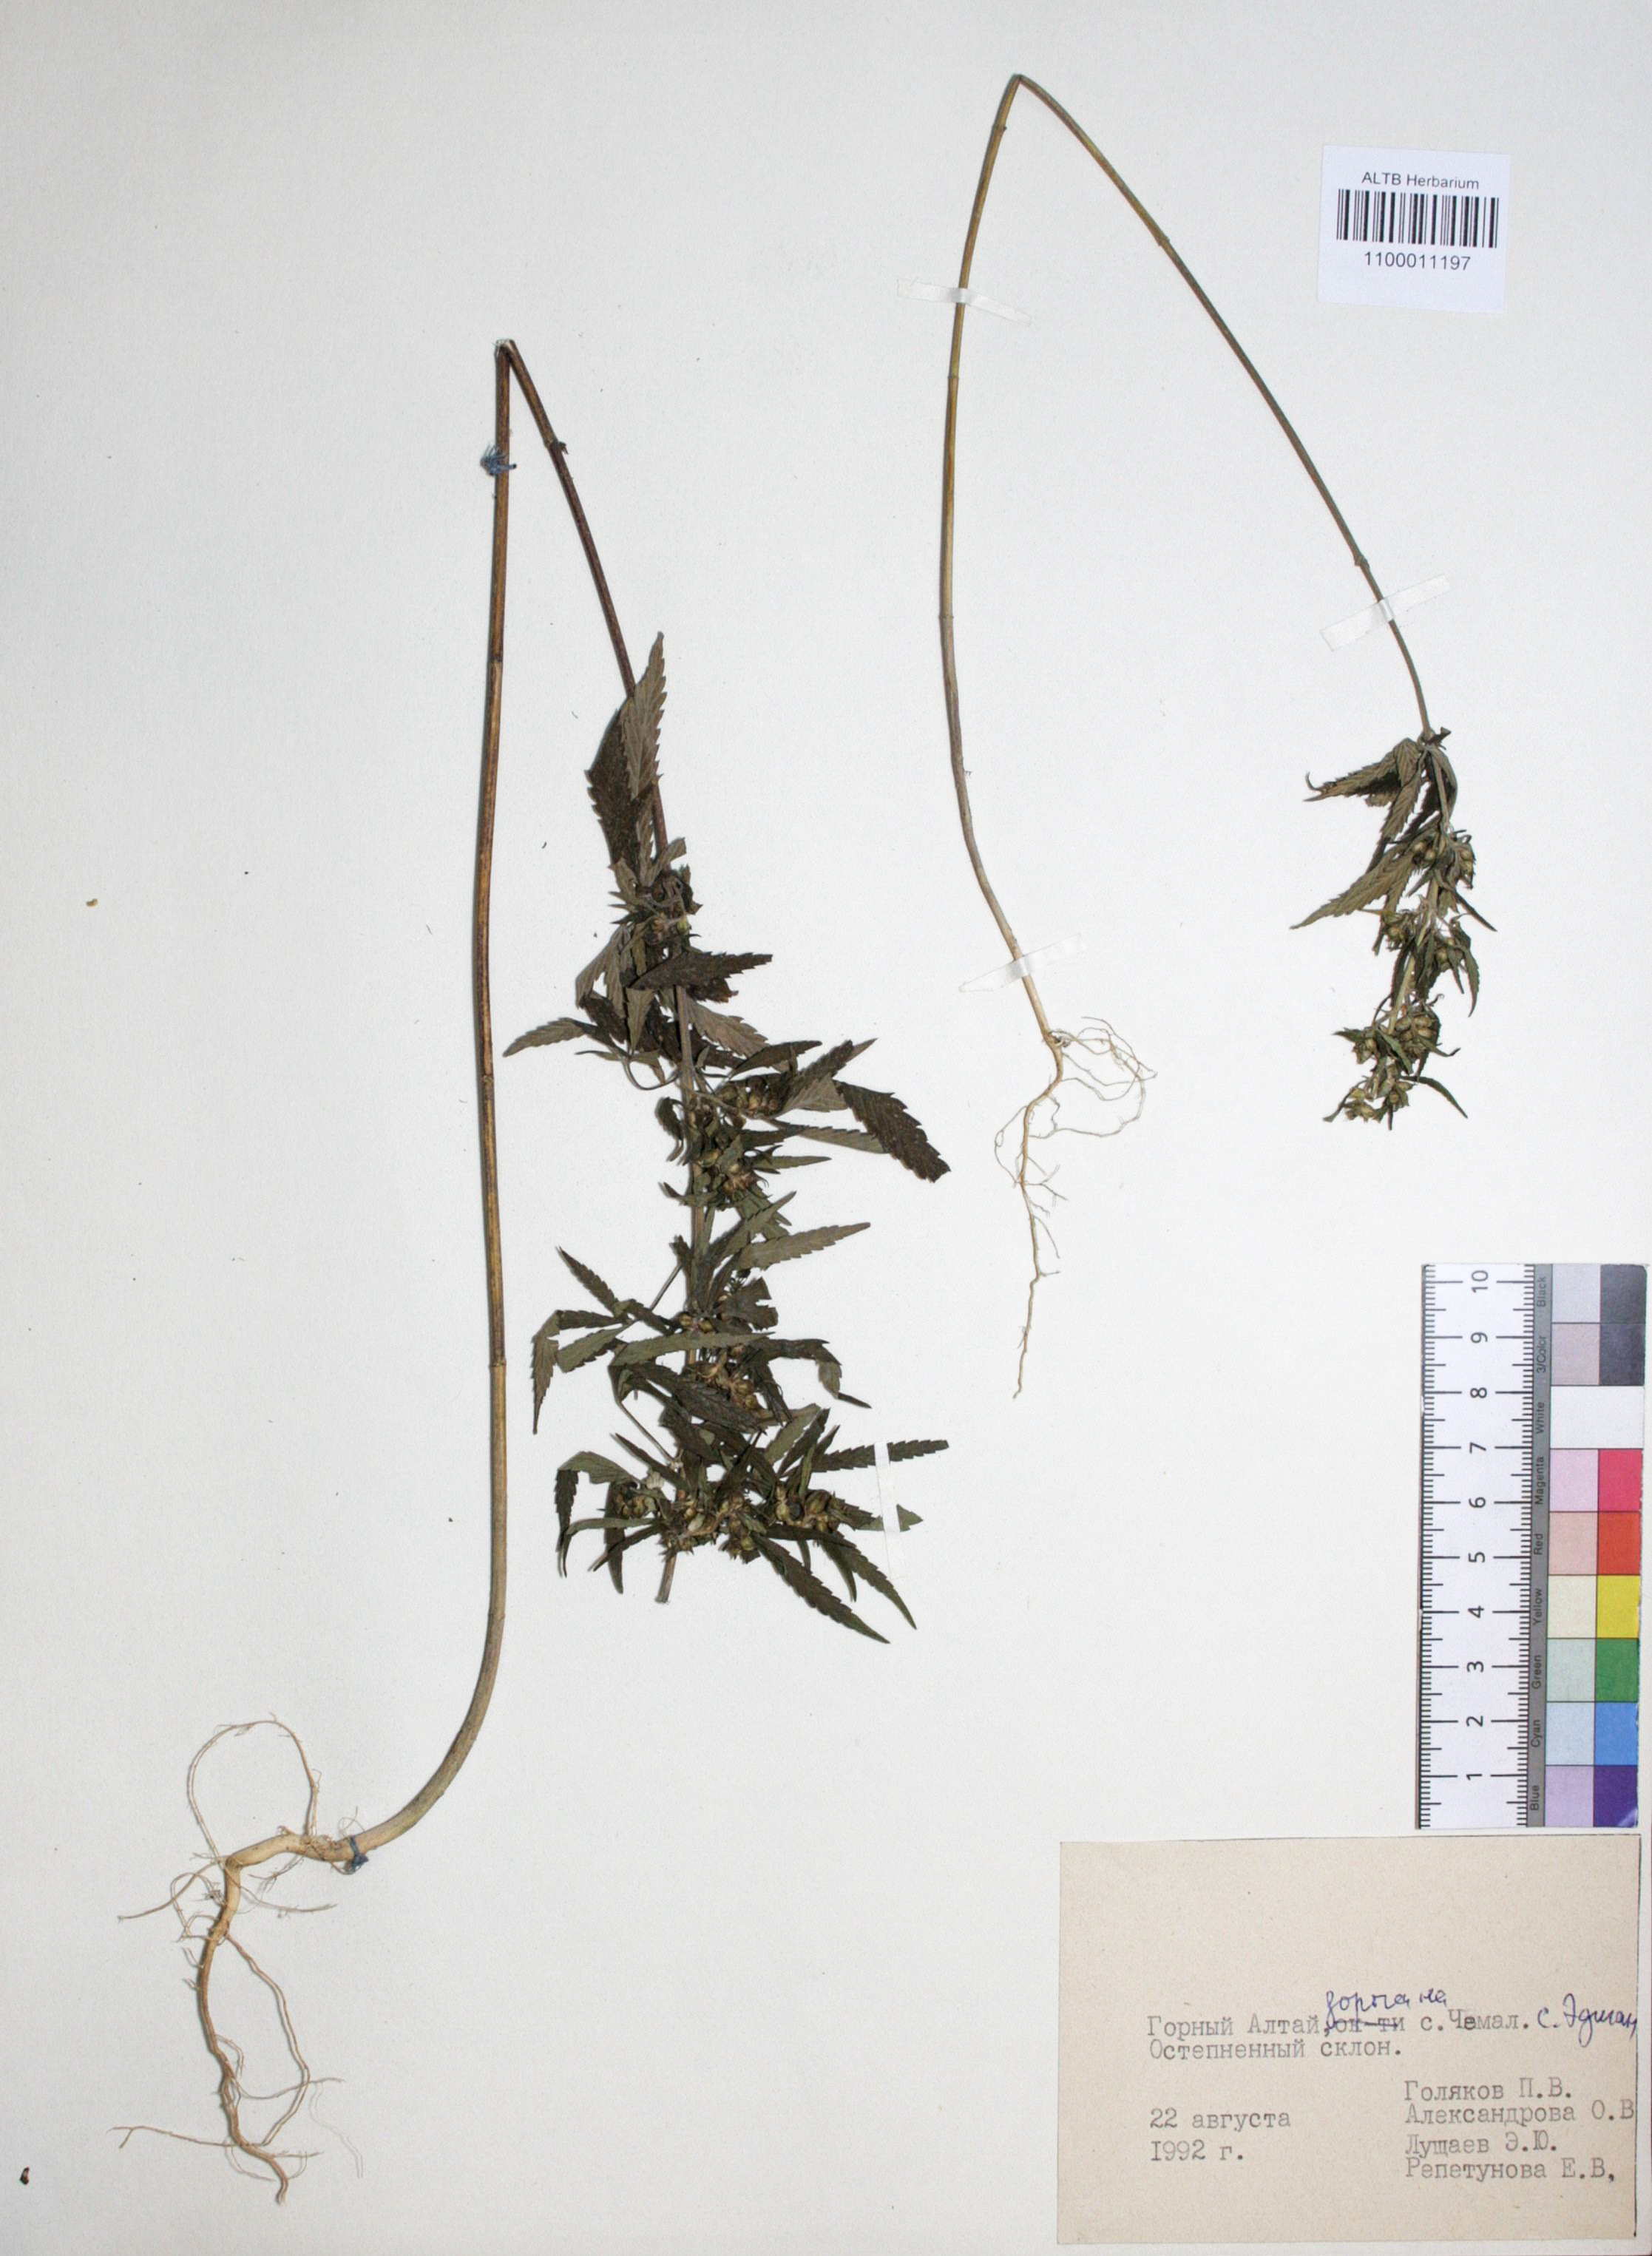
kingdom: Plantae
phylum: Tracheophyta
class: Magnoliopsida
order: Rosales
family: Cannabaceae
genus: Cannabis
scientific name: Cannabis sativa
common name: Hemp
